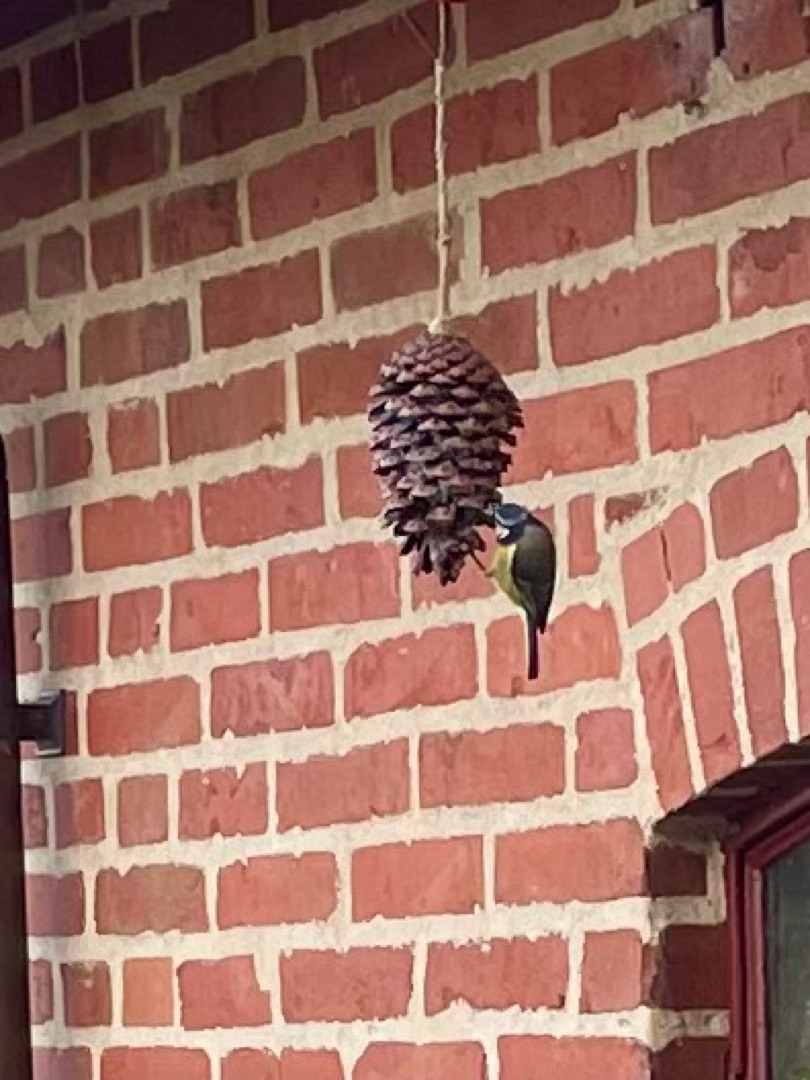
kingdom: Animalia
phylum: Chordata
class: Aves
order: Passeriformes
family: Paridae
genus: Cyanistes
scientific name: Cyanistes caeruleus
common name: Blåmejse
